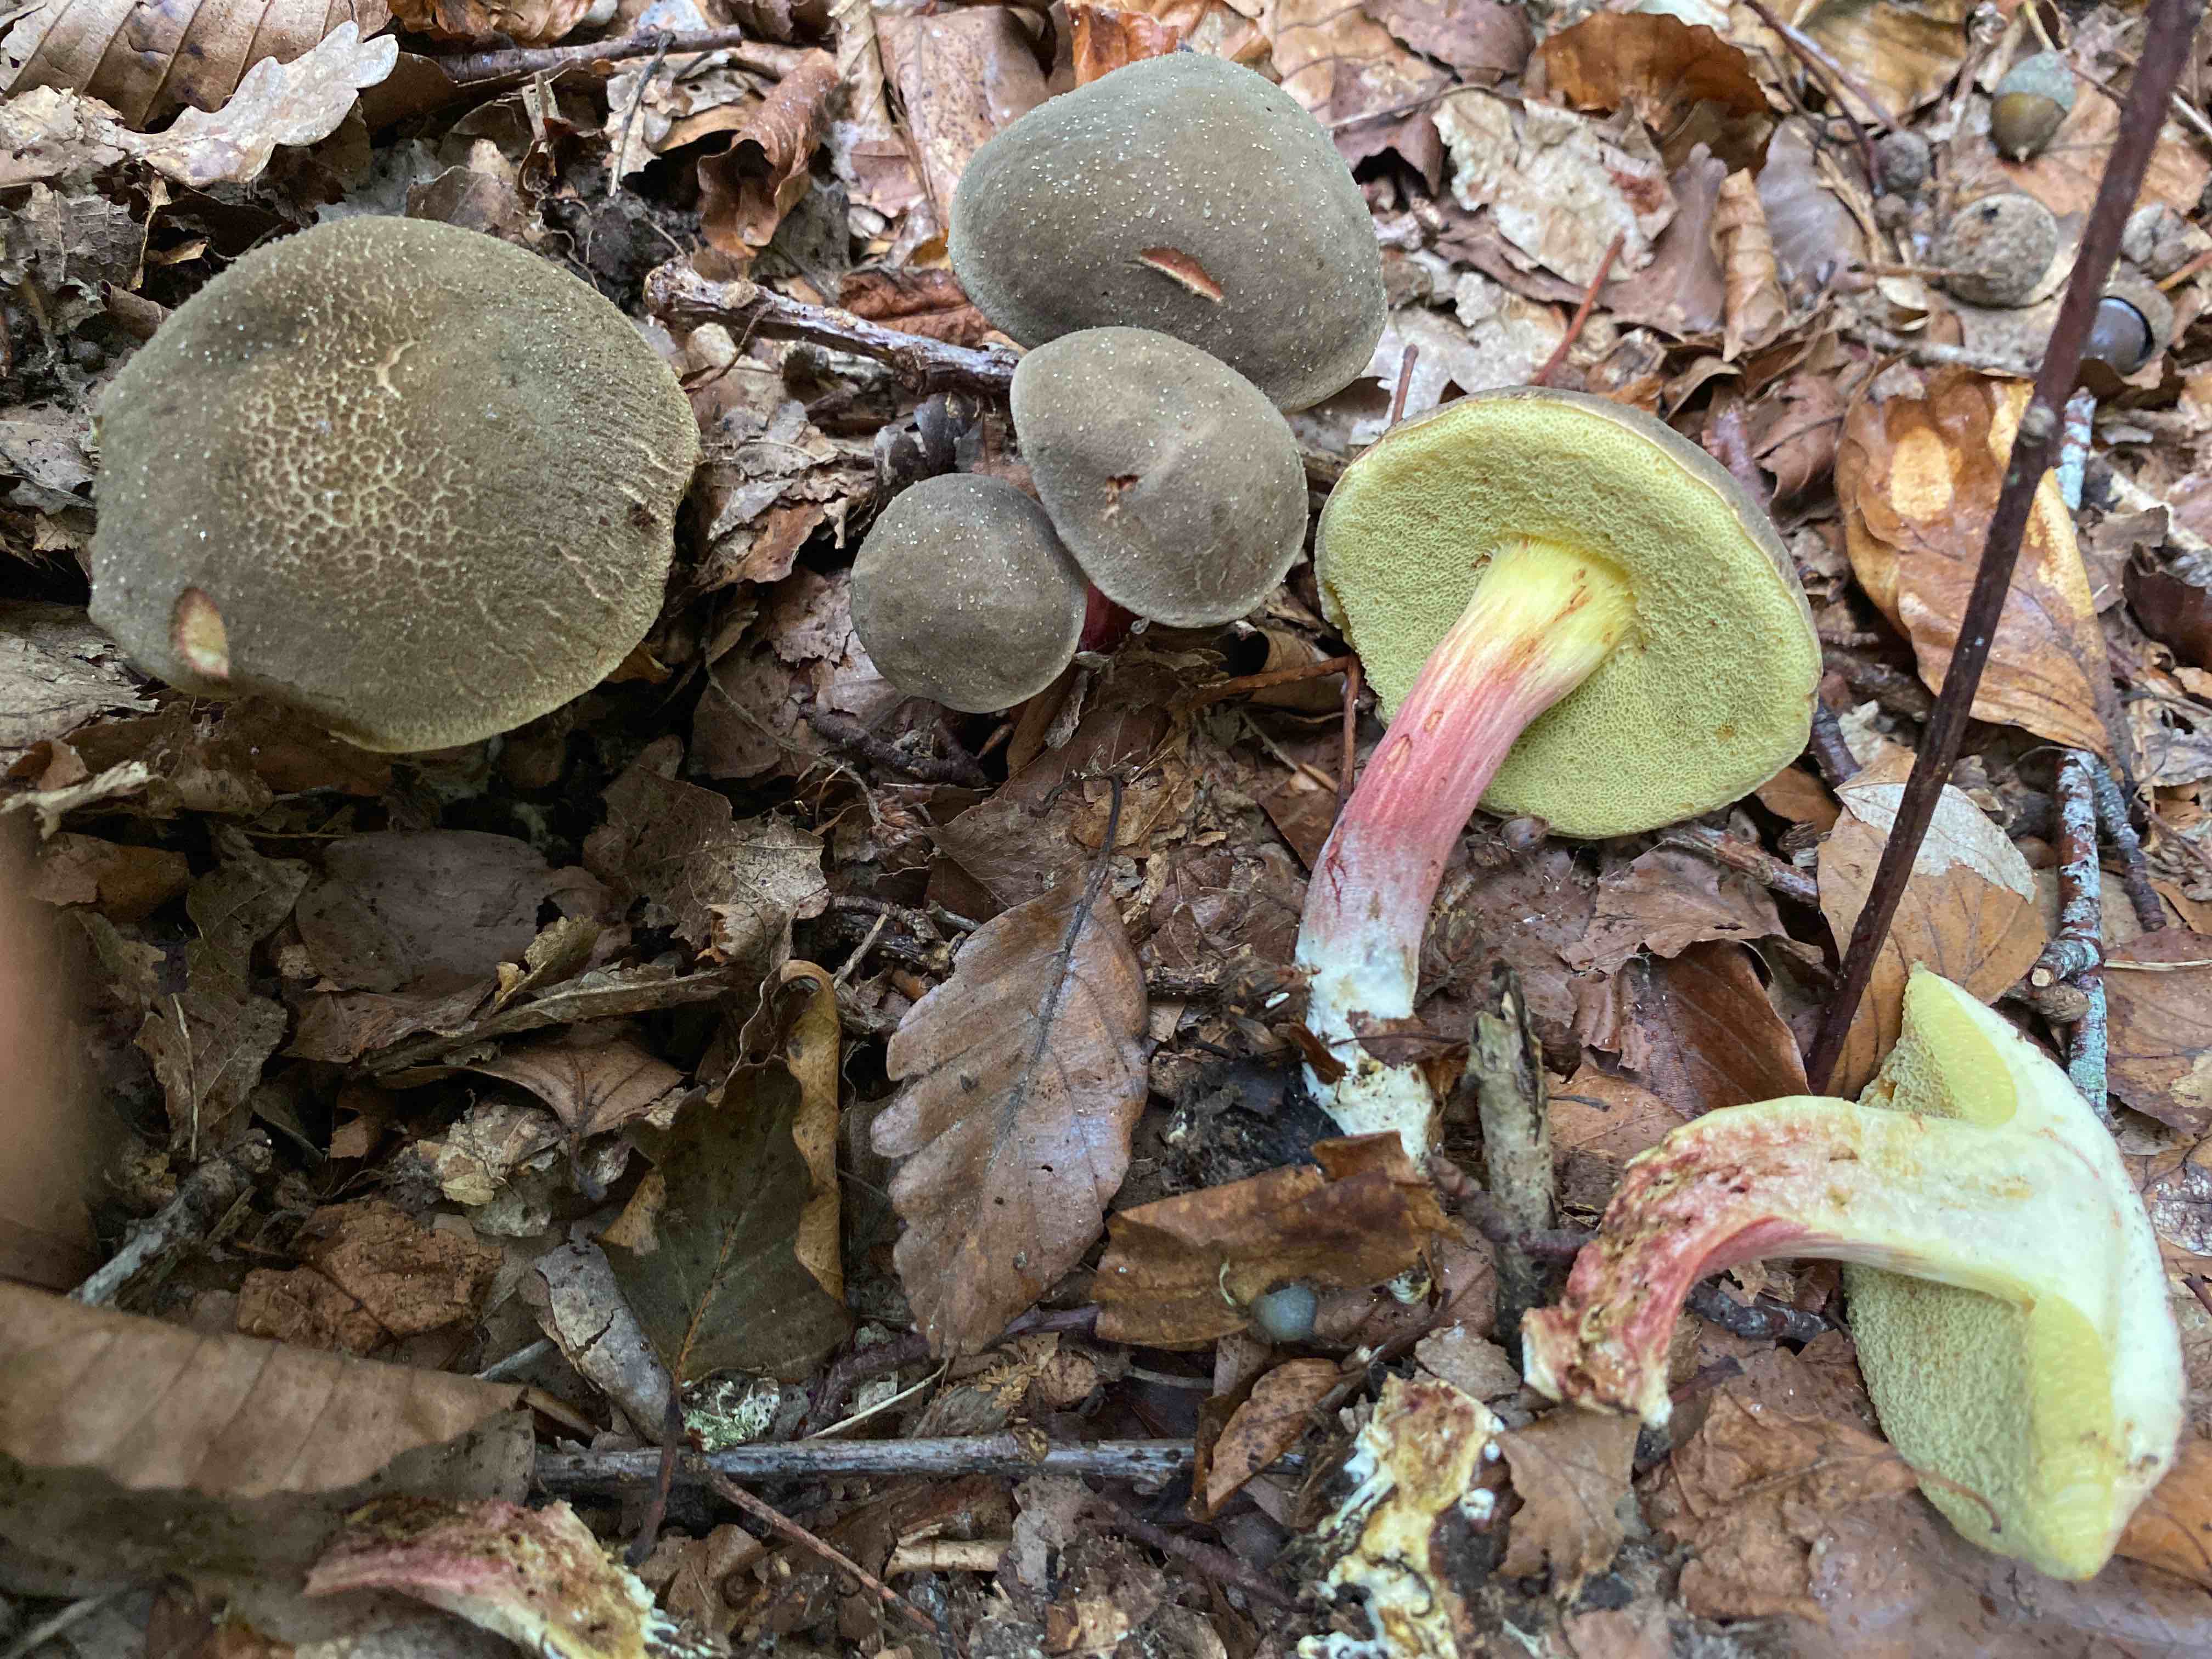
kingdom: Fungi
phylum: Basidiomycota
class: Agaricomycetes
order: Boletales
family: Boletaceae
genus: Xerocomellus
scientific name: Xerocomellus chrysenteron
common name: rødsprukken rørhat
